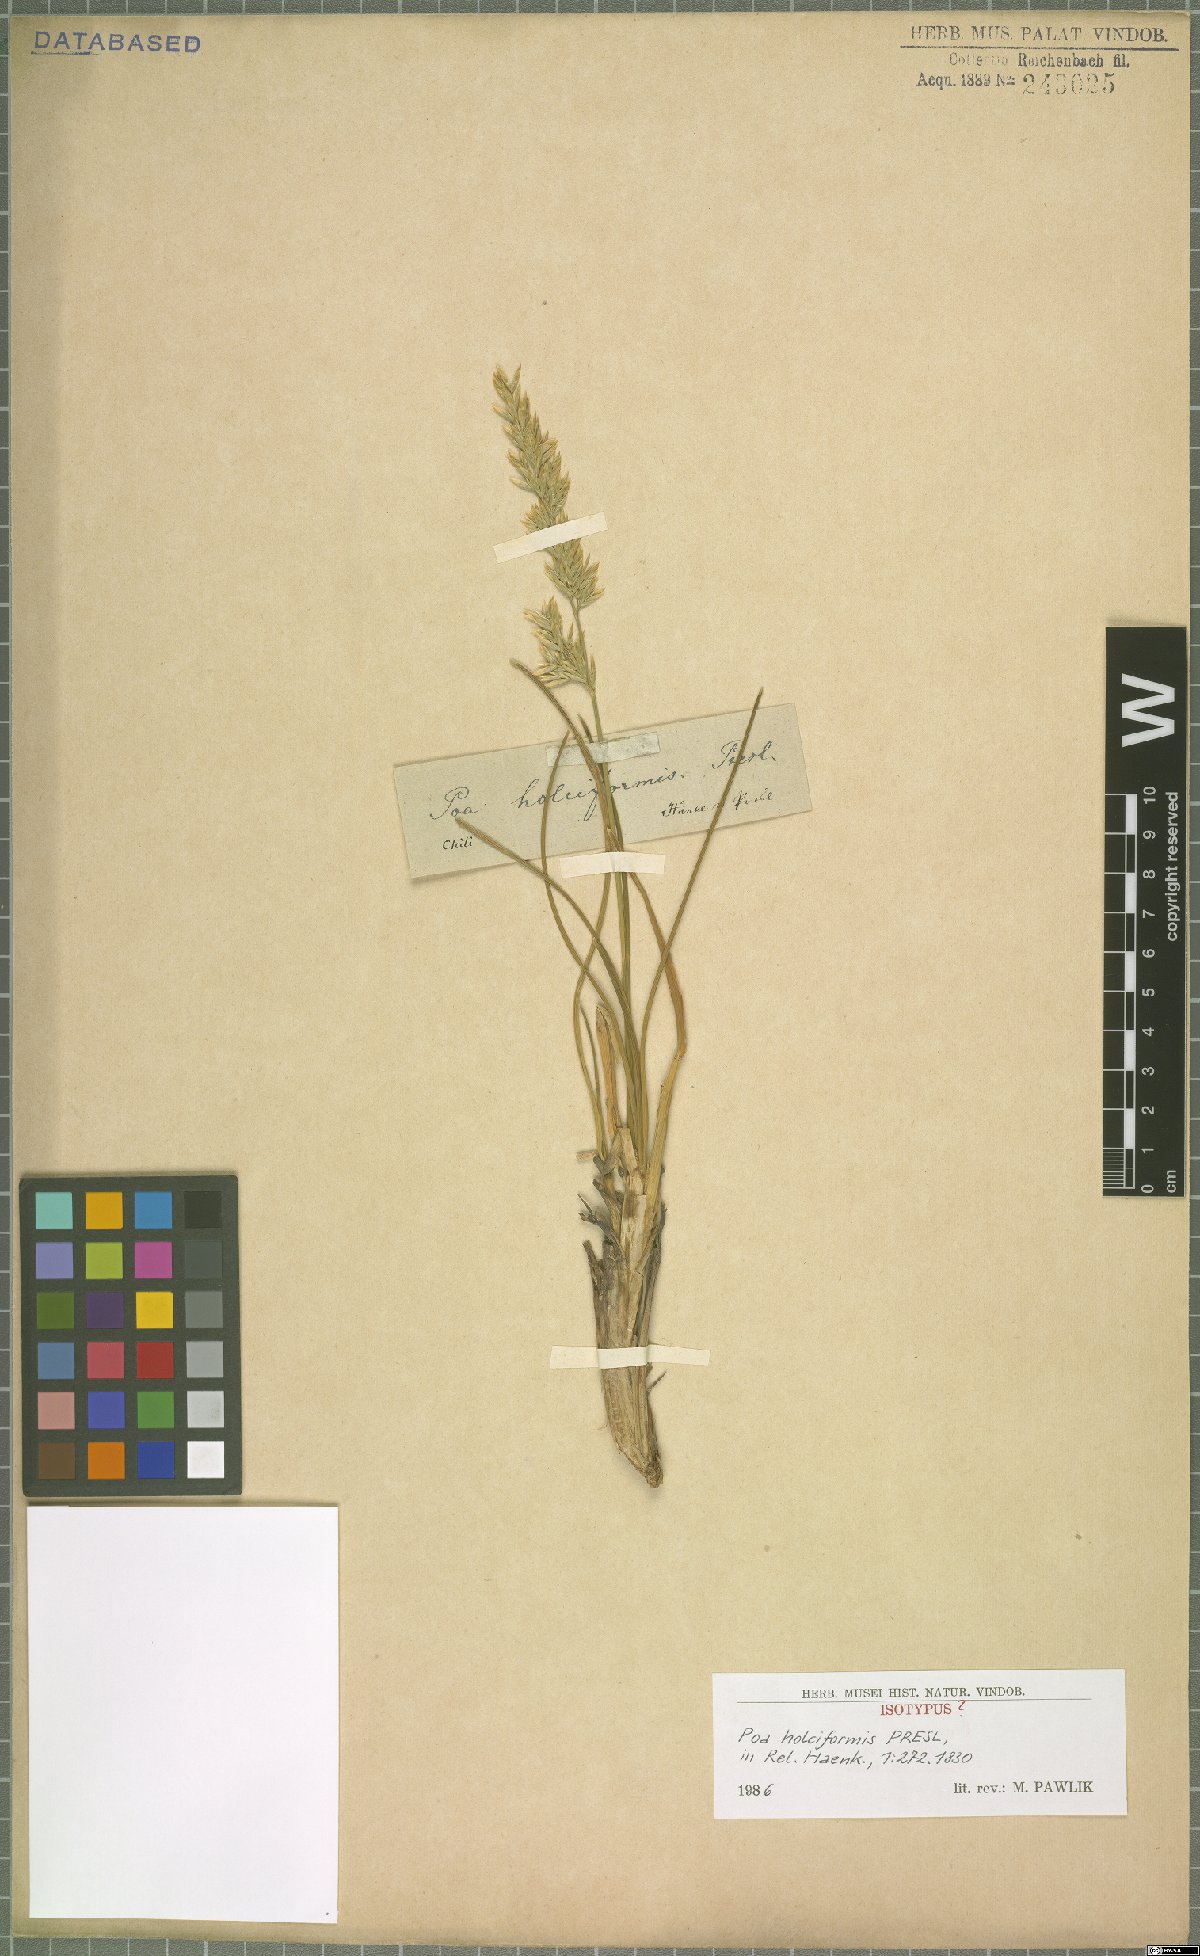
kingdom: Plantae
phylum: Tracheophyta
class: Liliopsida
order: Poales
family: Poaceae
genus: Poa
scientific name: Poa holciformis
